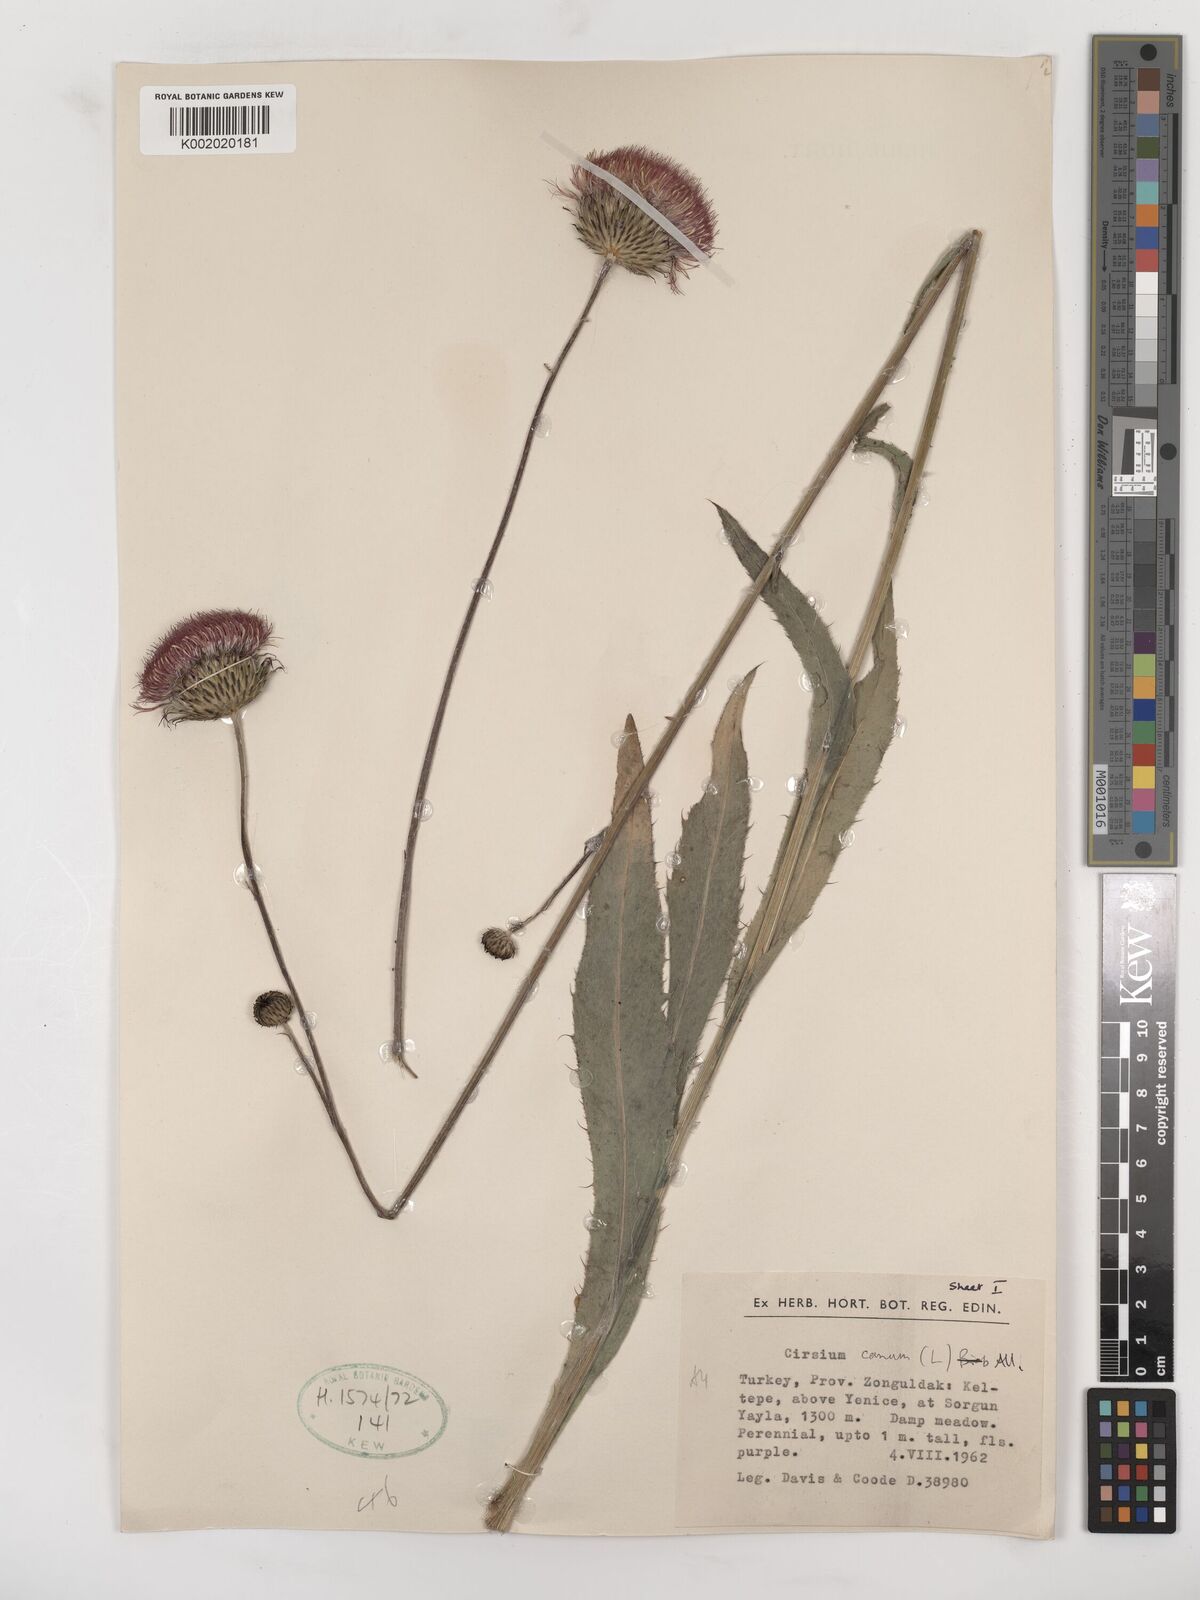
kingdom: Plantae
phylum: Tracheophyta
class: Magnoliopsida
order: Asterales
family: Asteraceae
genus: Cirsium
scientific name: Cirsium canum
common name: Queen anne's thistle
